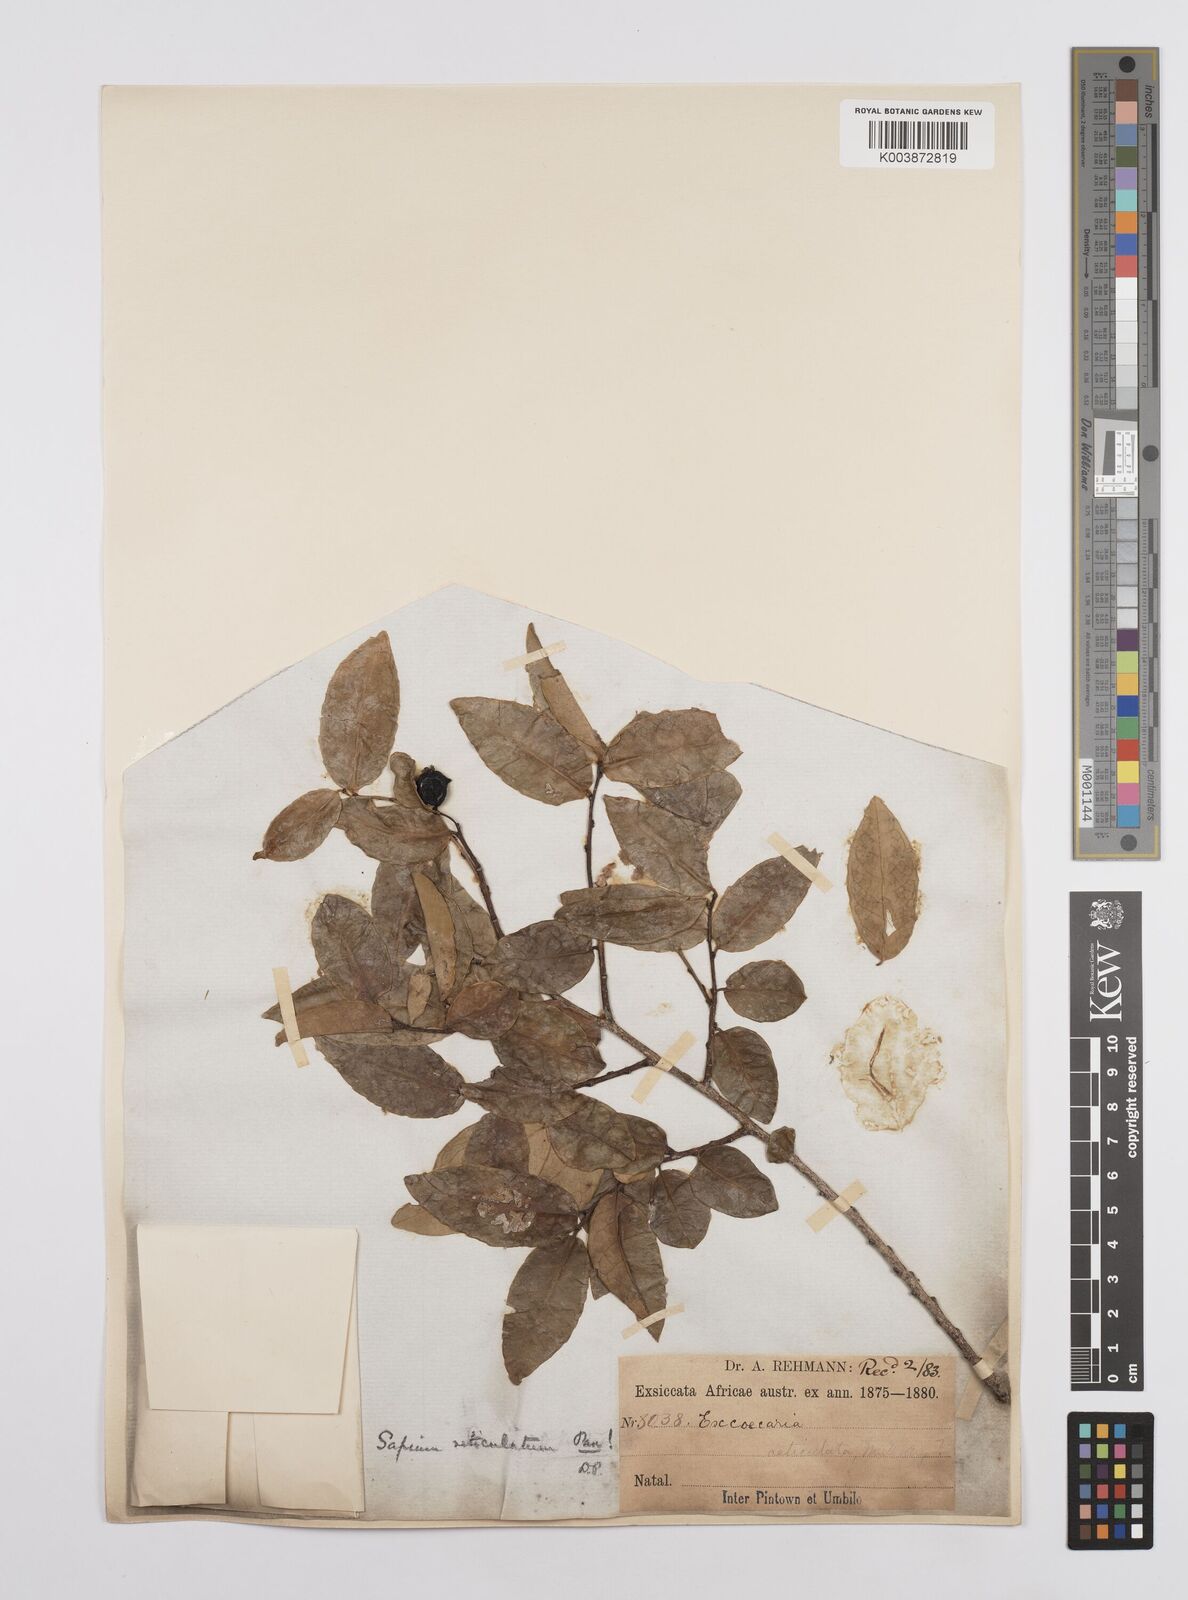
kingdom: Plantae
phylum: Tracheophyta
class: Magnoliopsida
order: Malpighiales
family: Euphorbiaceae
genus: Sclerocroton
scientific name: Sclerocroton integerrimus
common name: Duiker berry
